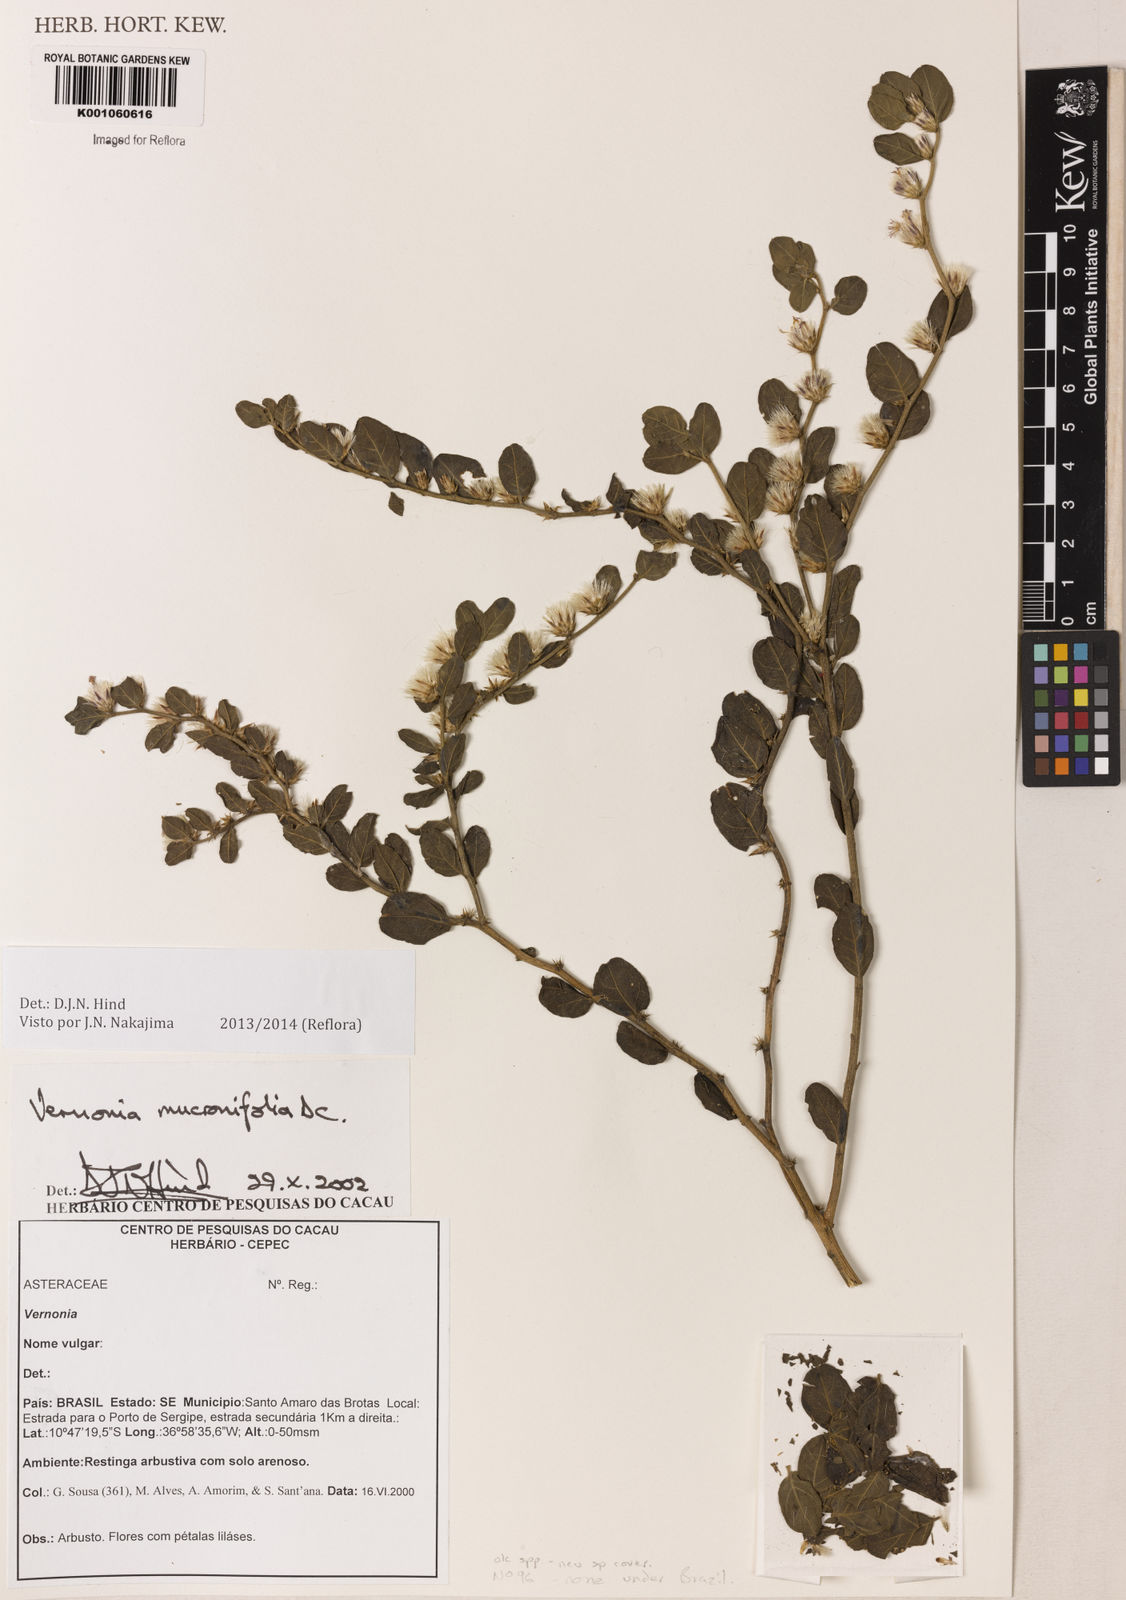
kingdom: Plantae
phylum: Tracheophyta
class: Magnoliopsida
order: Asterales
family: Asteraceae
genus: Lepidaploa
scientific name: Lepidaploa mucronifolia
